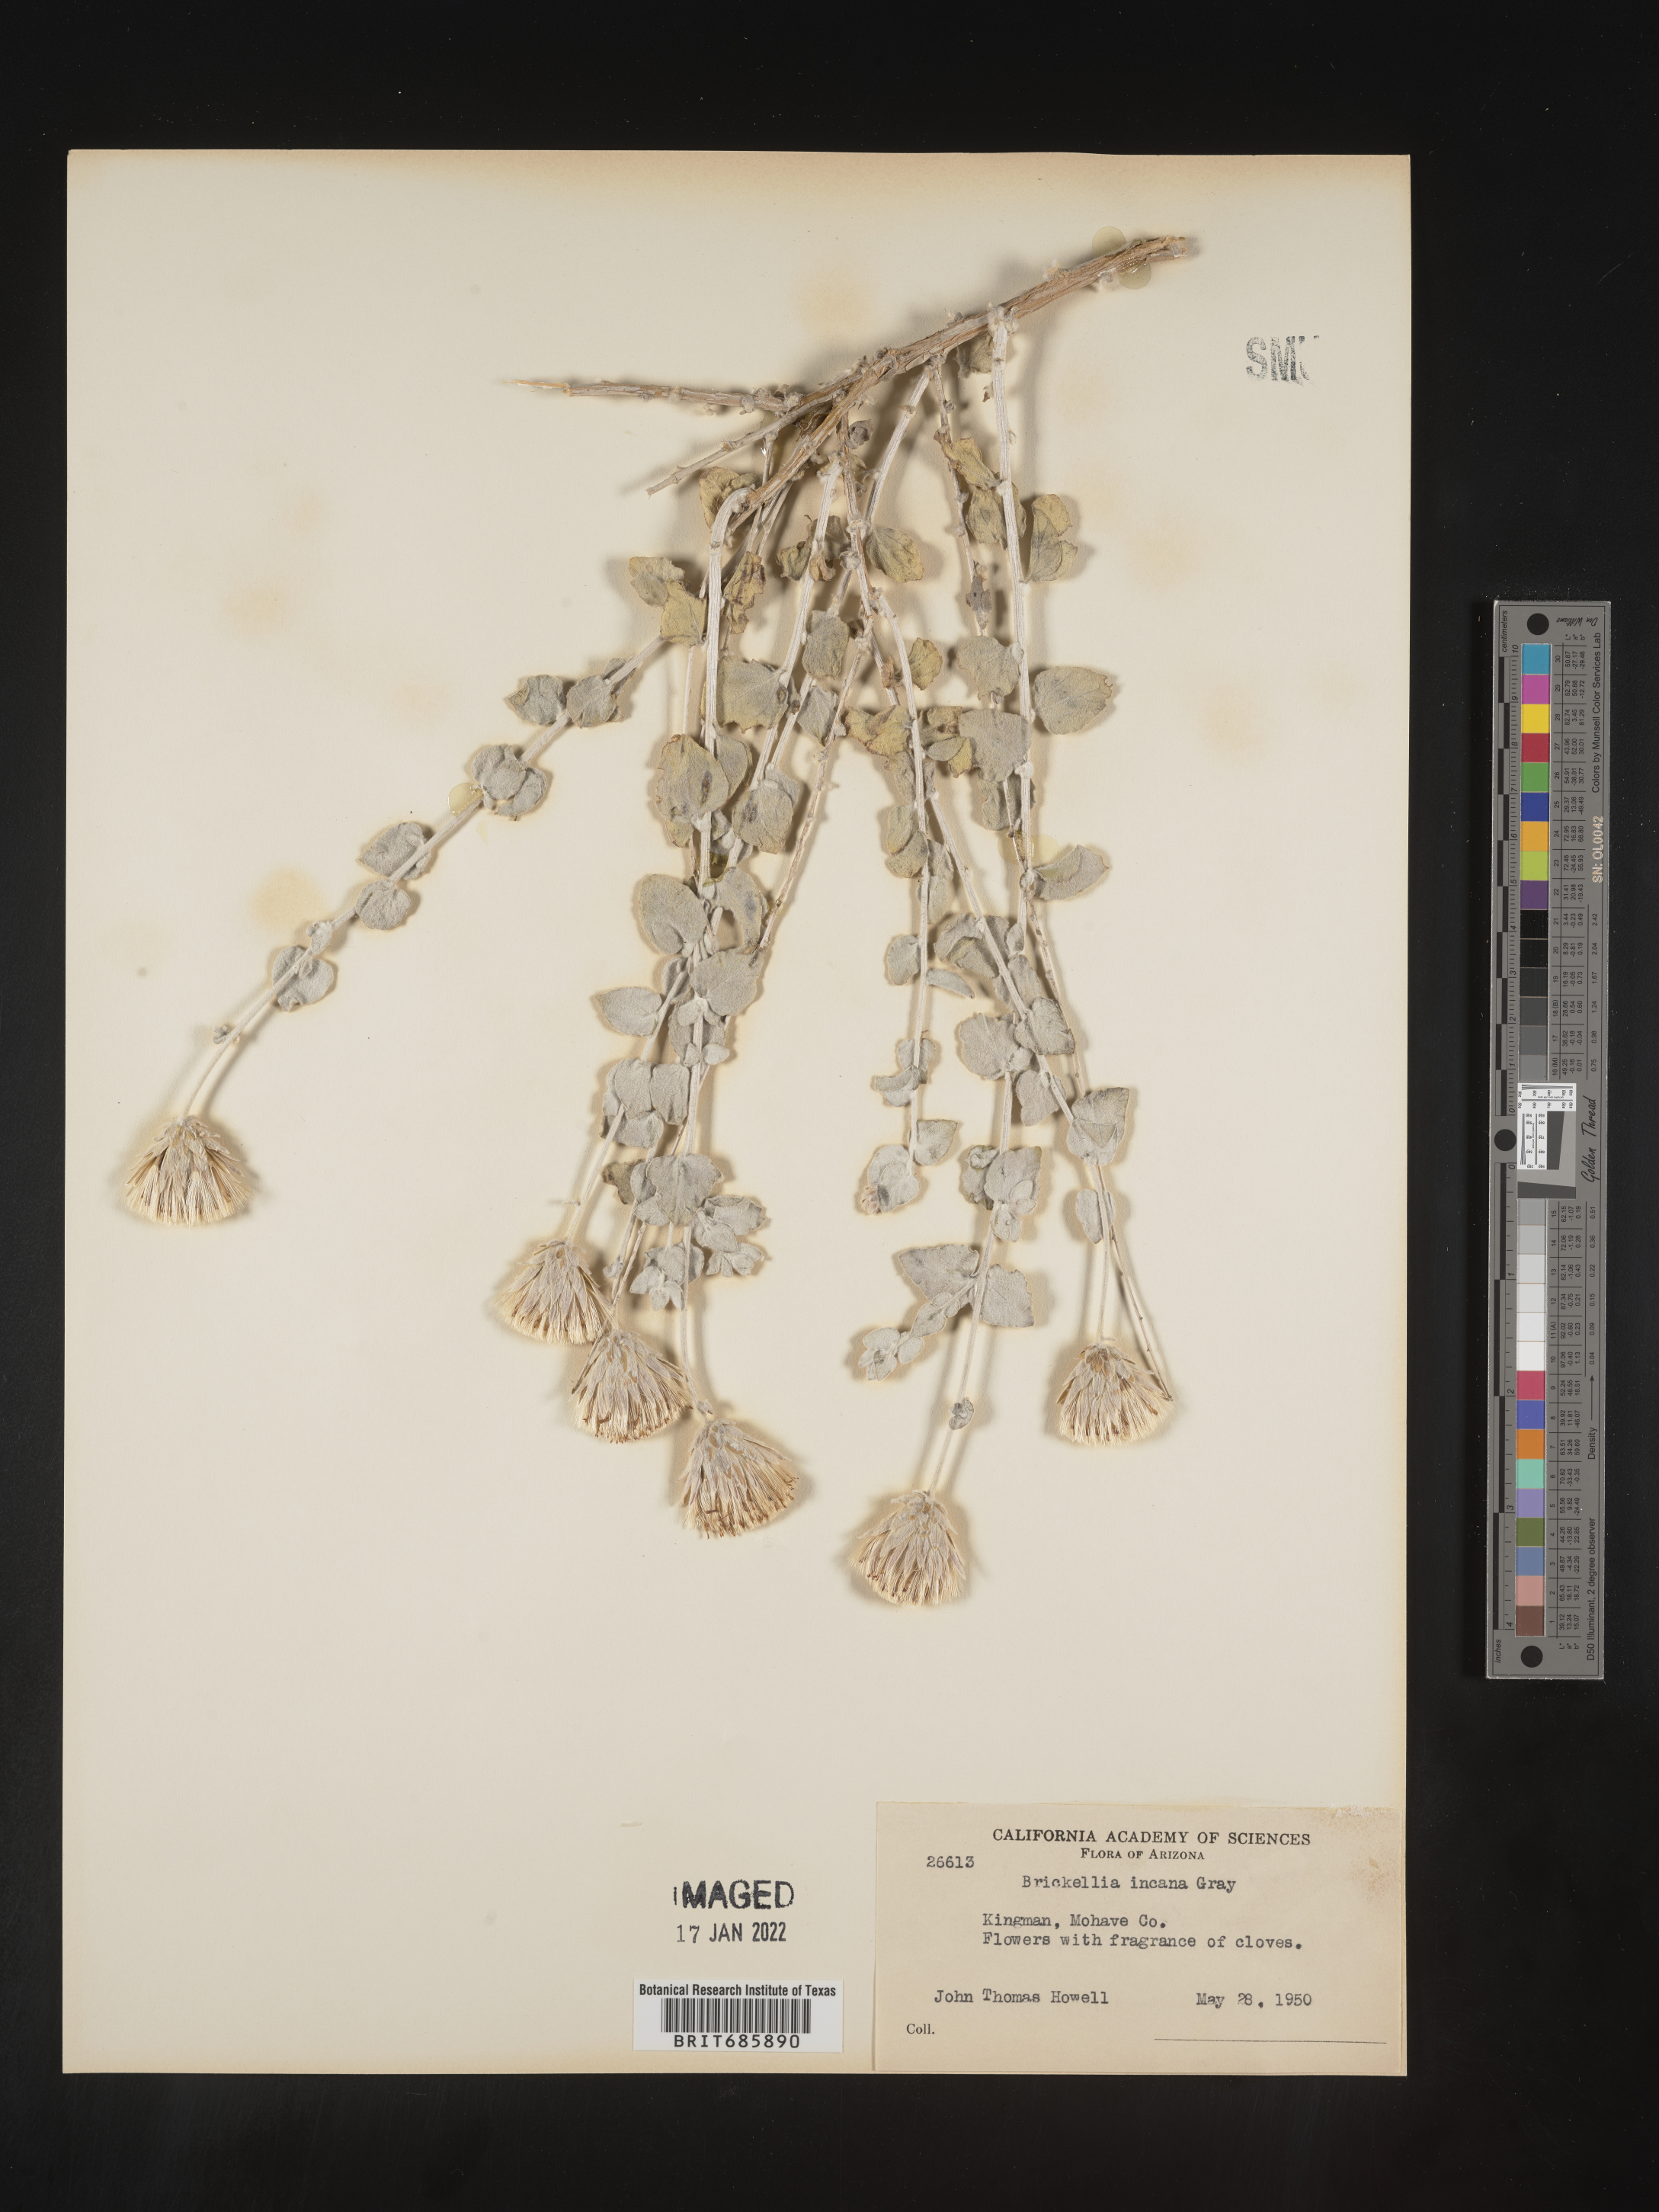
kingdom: Plantae
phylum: Tracheophyta
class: Magnoliopsida
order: Asterales
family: Asteraceae
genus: Brickellia
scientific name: Brickellia incana
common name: Woolly brickelbush
